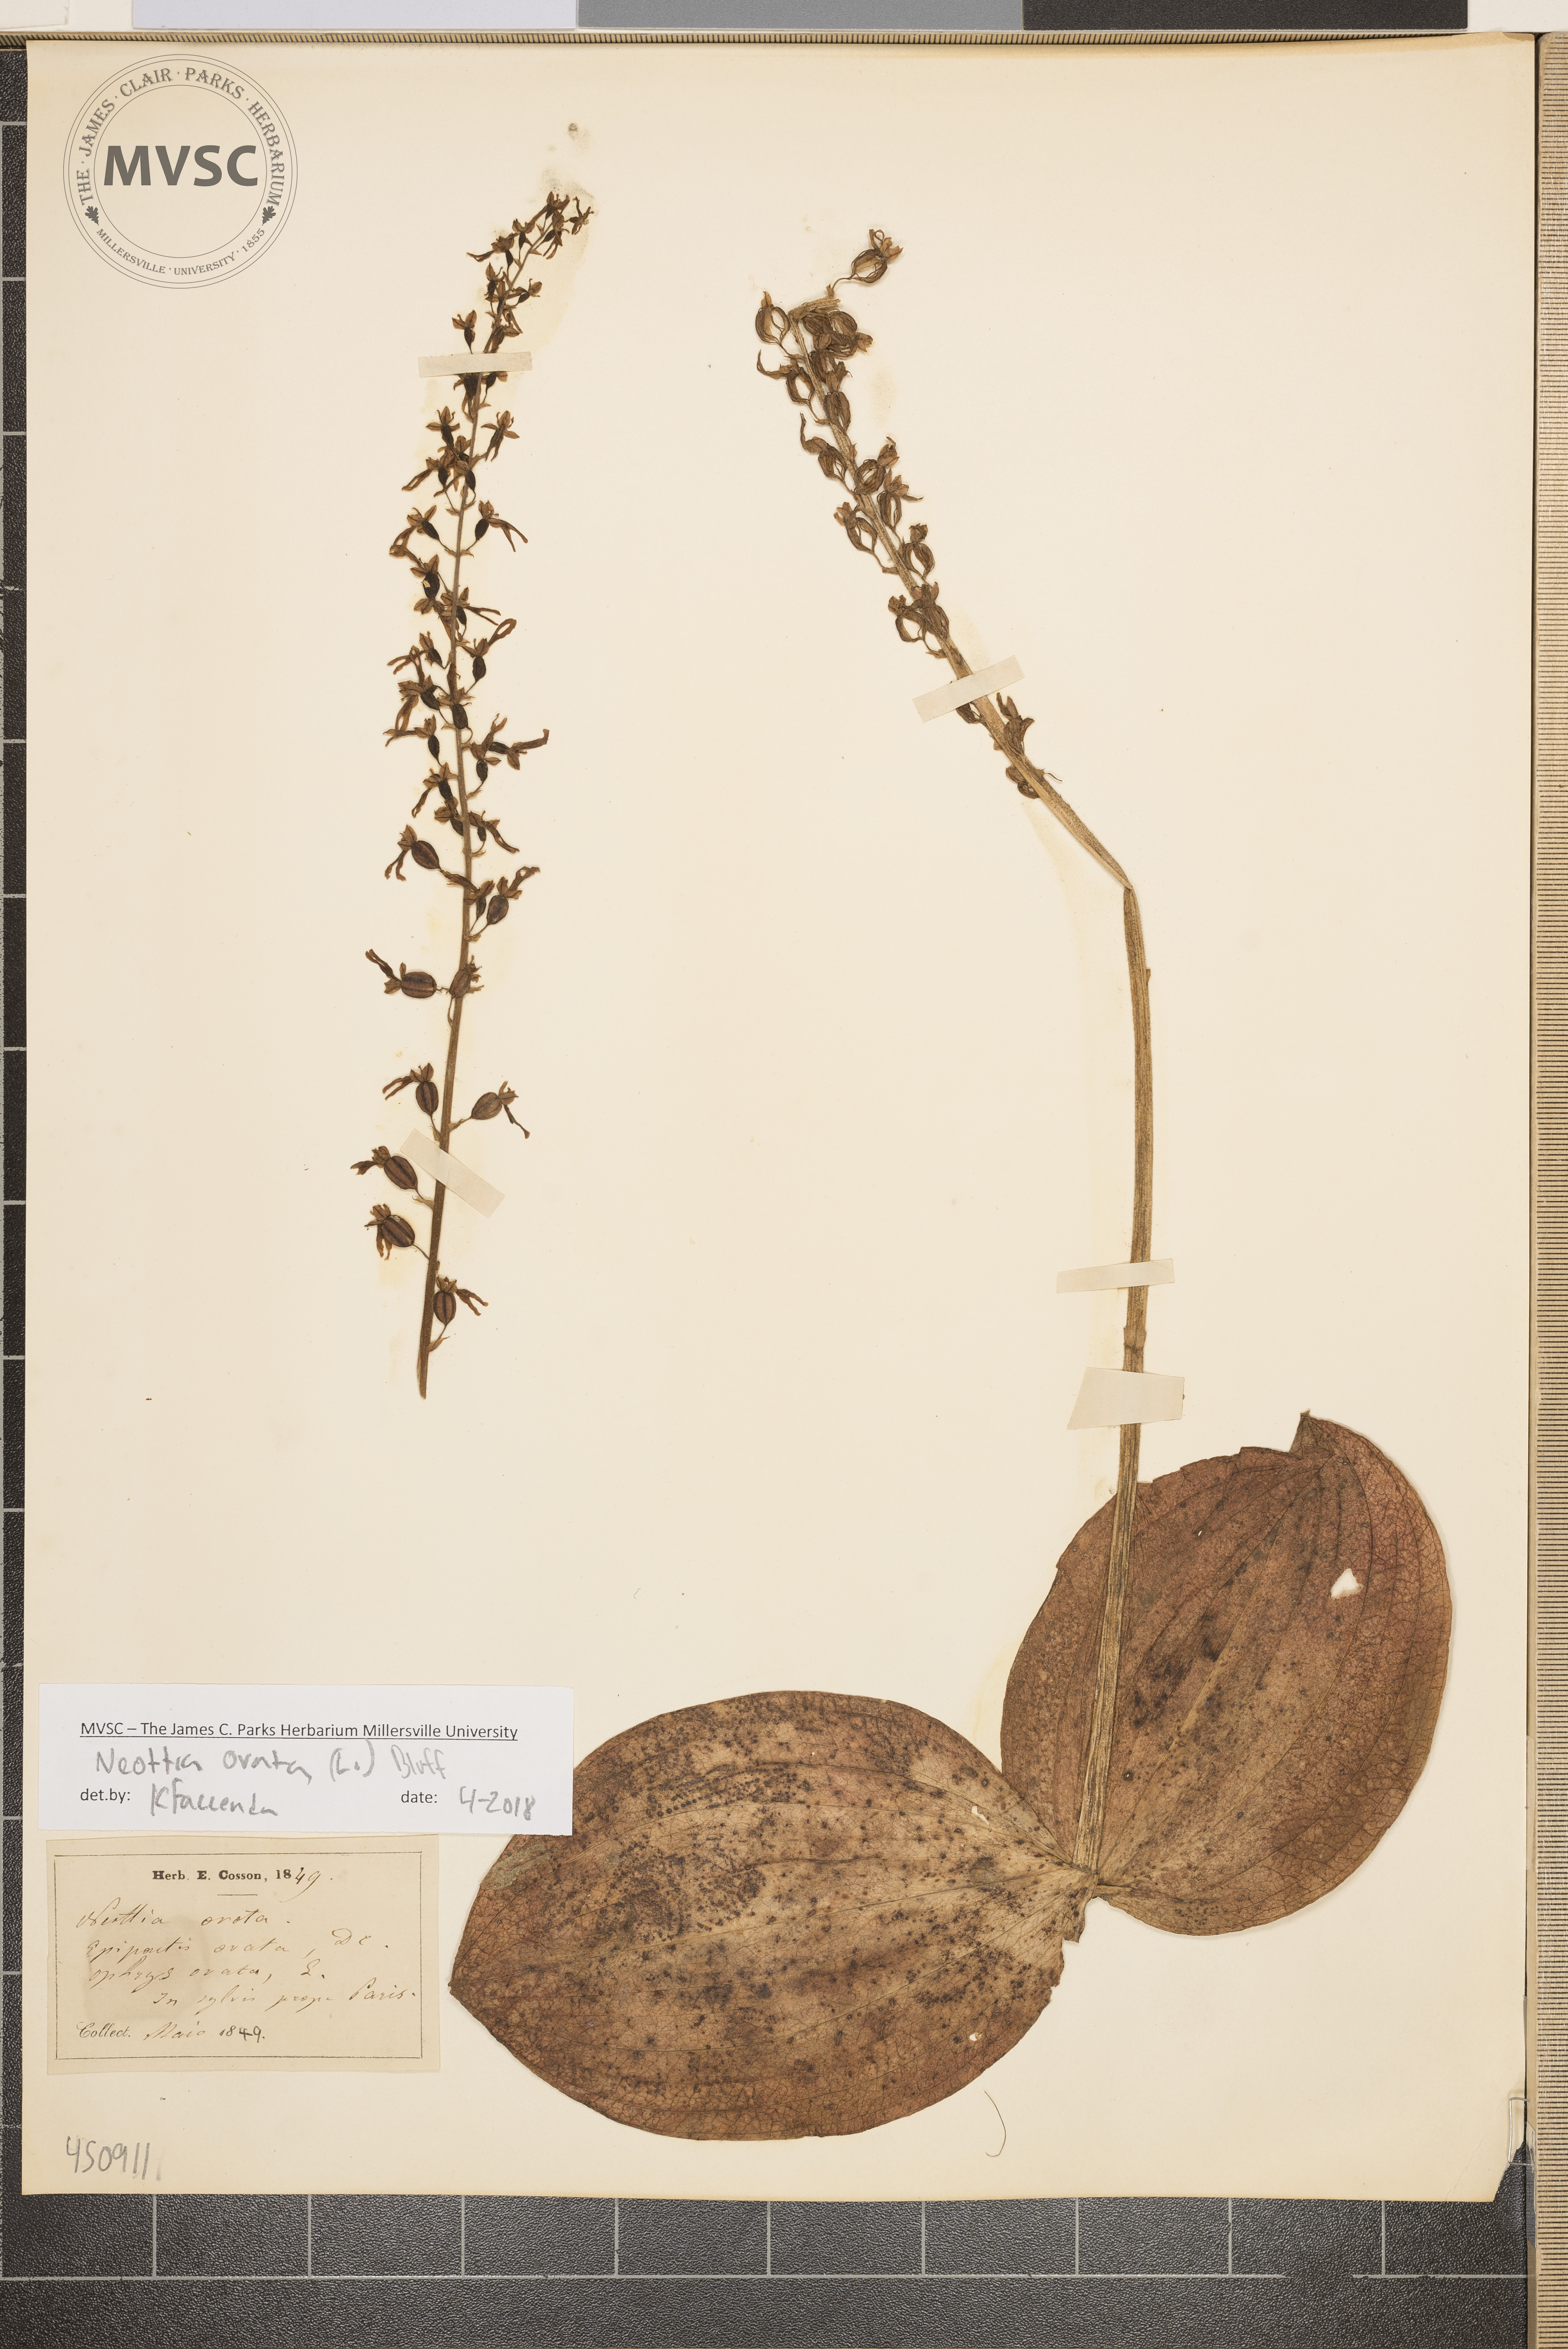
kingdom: Plantae
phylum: Tracheophyta
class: Liliopsida
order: Asparagales
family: Orchidaceae
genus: Neottia
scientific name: Neottia ovata
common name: Common twayblade
